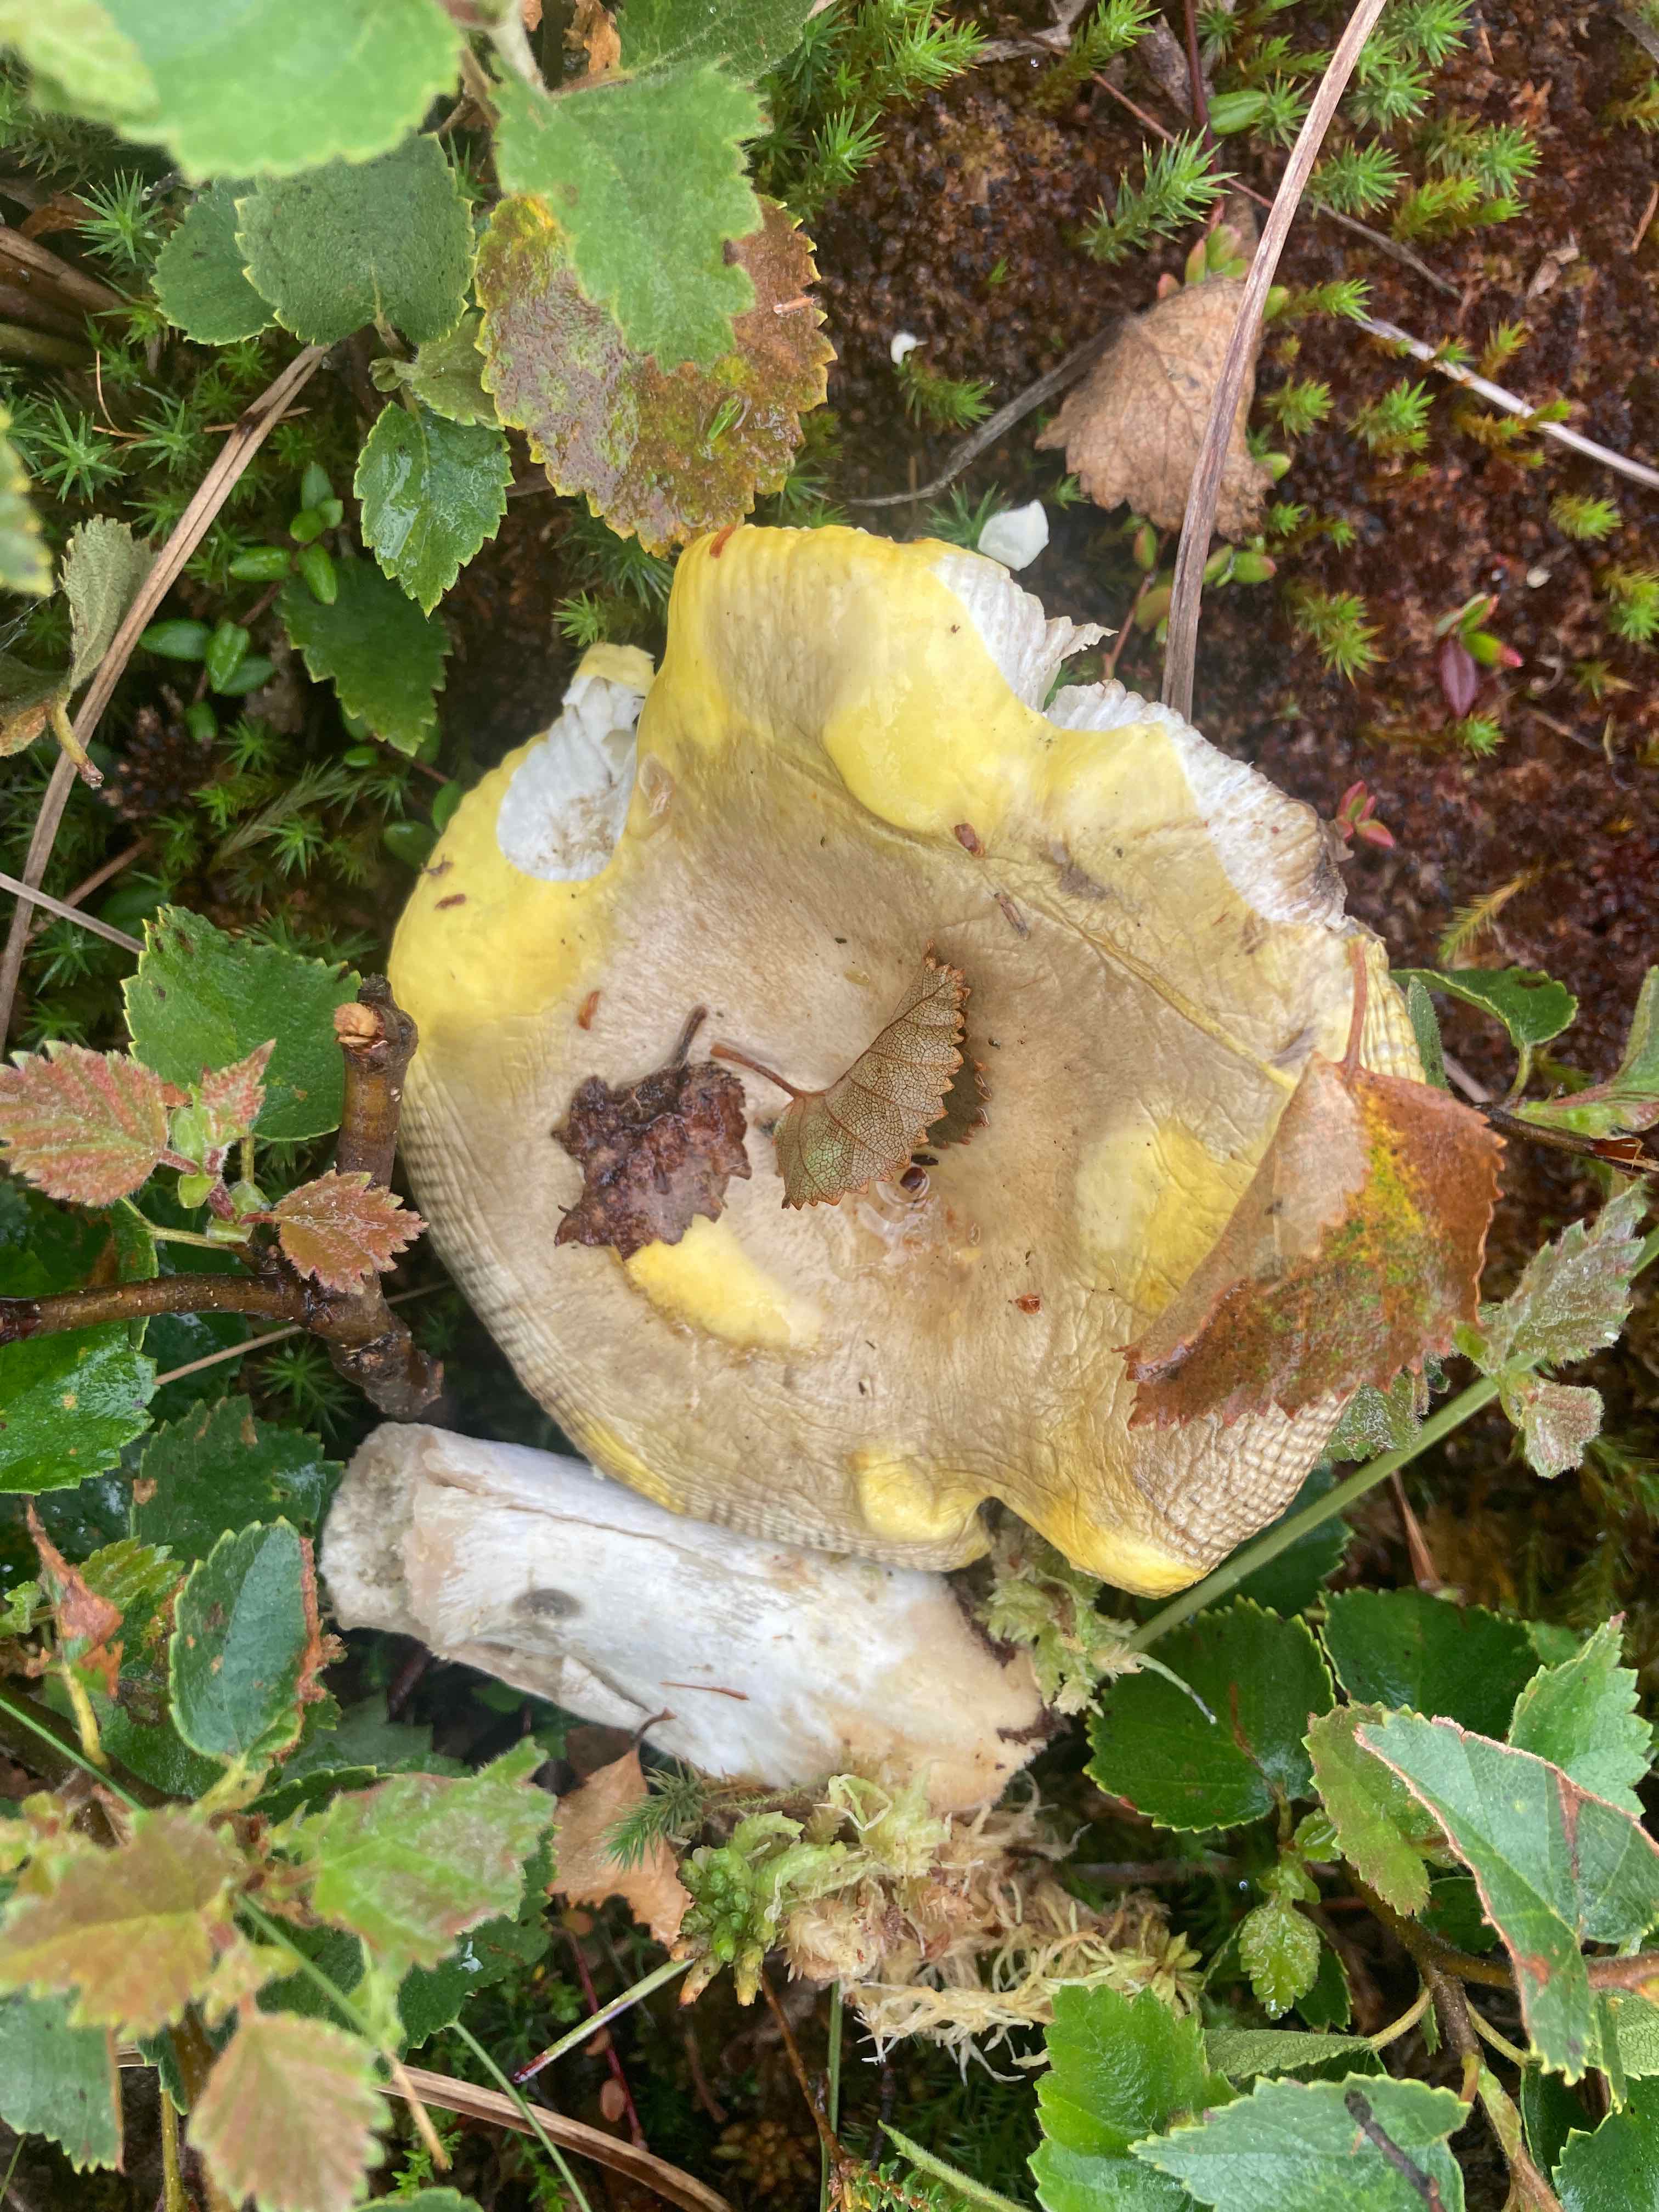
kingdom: Fungi
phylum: Basidiomycota
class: Agaricomycetes
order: Russulales
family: Russulaceae
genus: Russula
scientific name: Russula claroflava
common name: birke-skørhat
